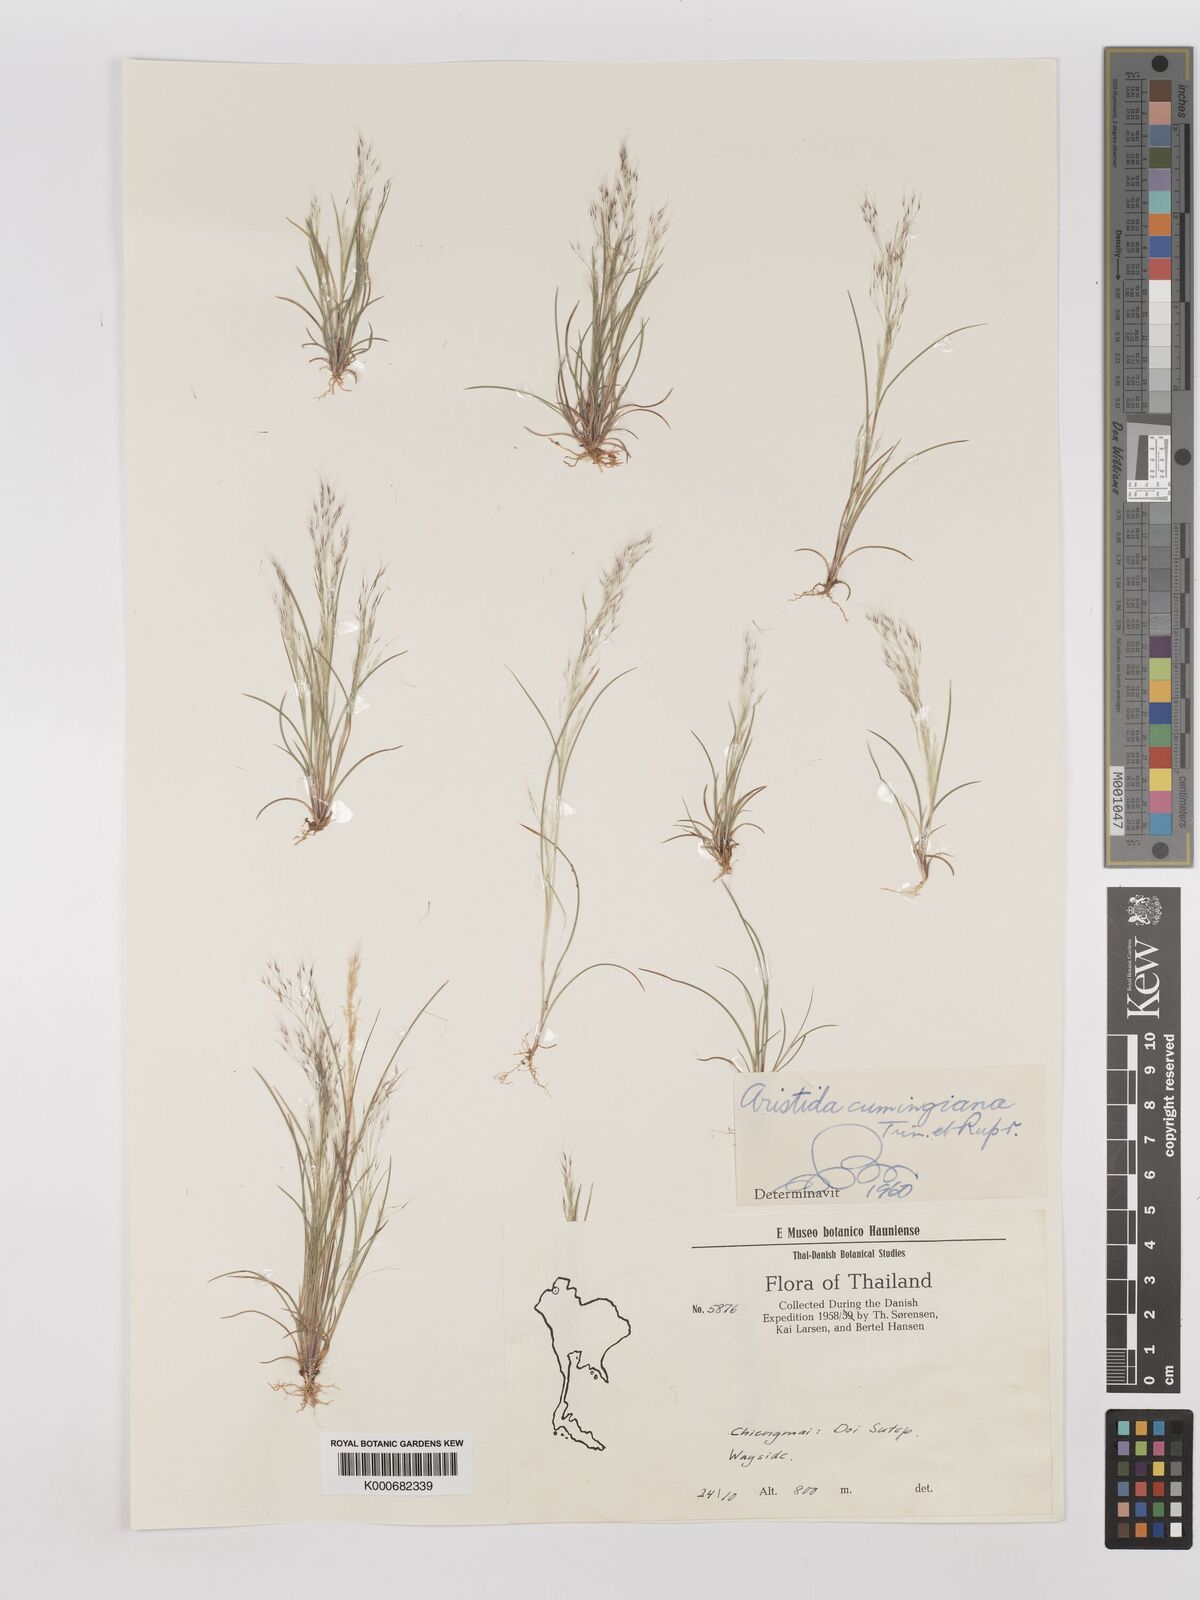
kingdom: Plantae
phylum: Tracheophyta
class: Liliopsida
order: Poales
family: Poaceae
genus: Aristida
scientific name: Aristida cumingiana
